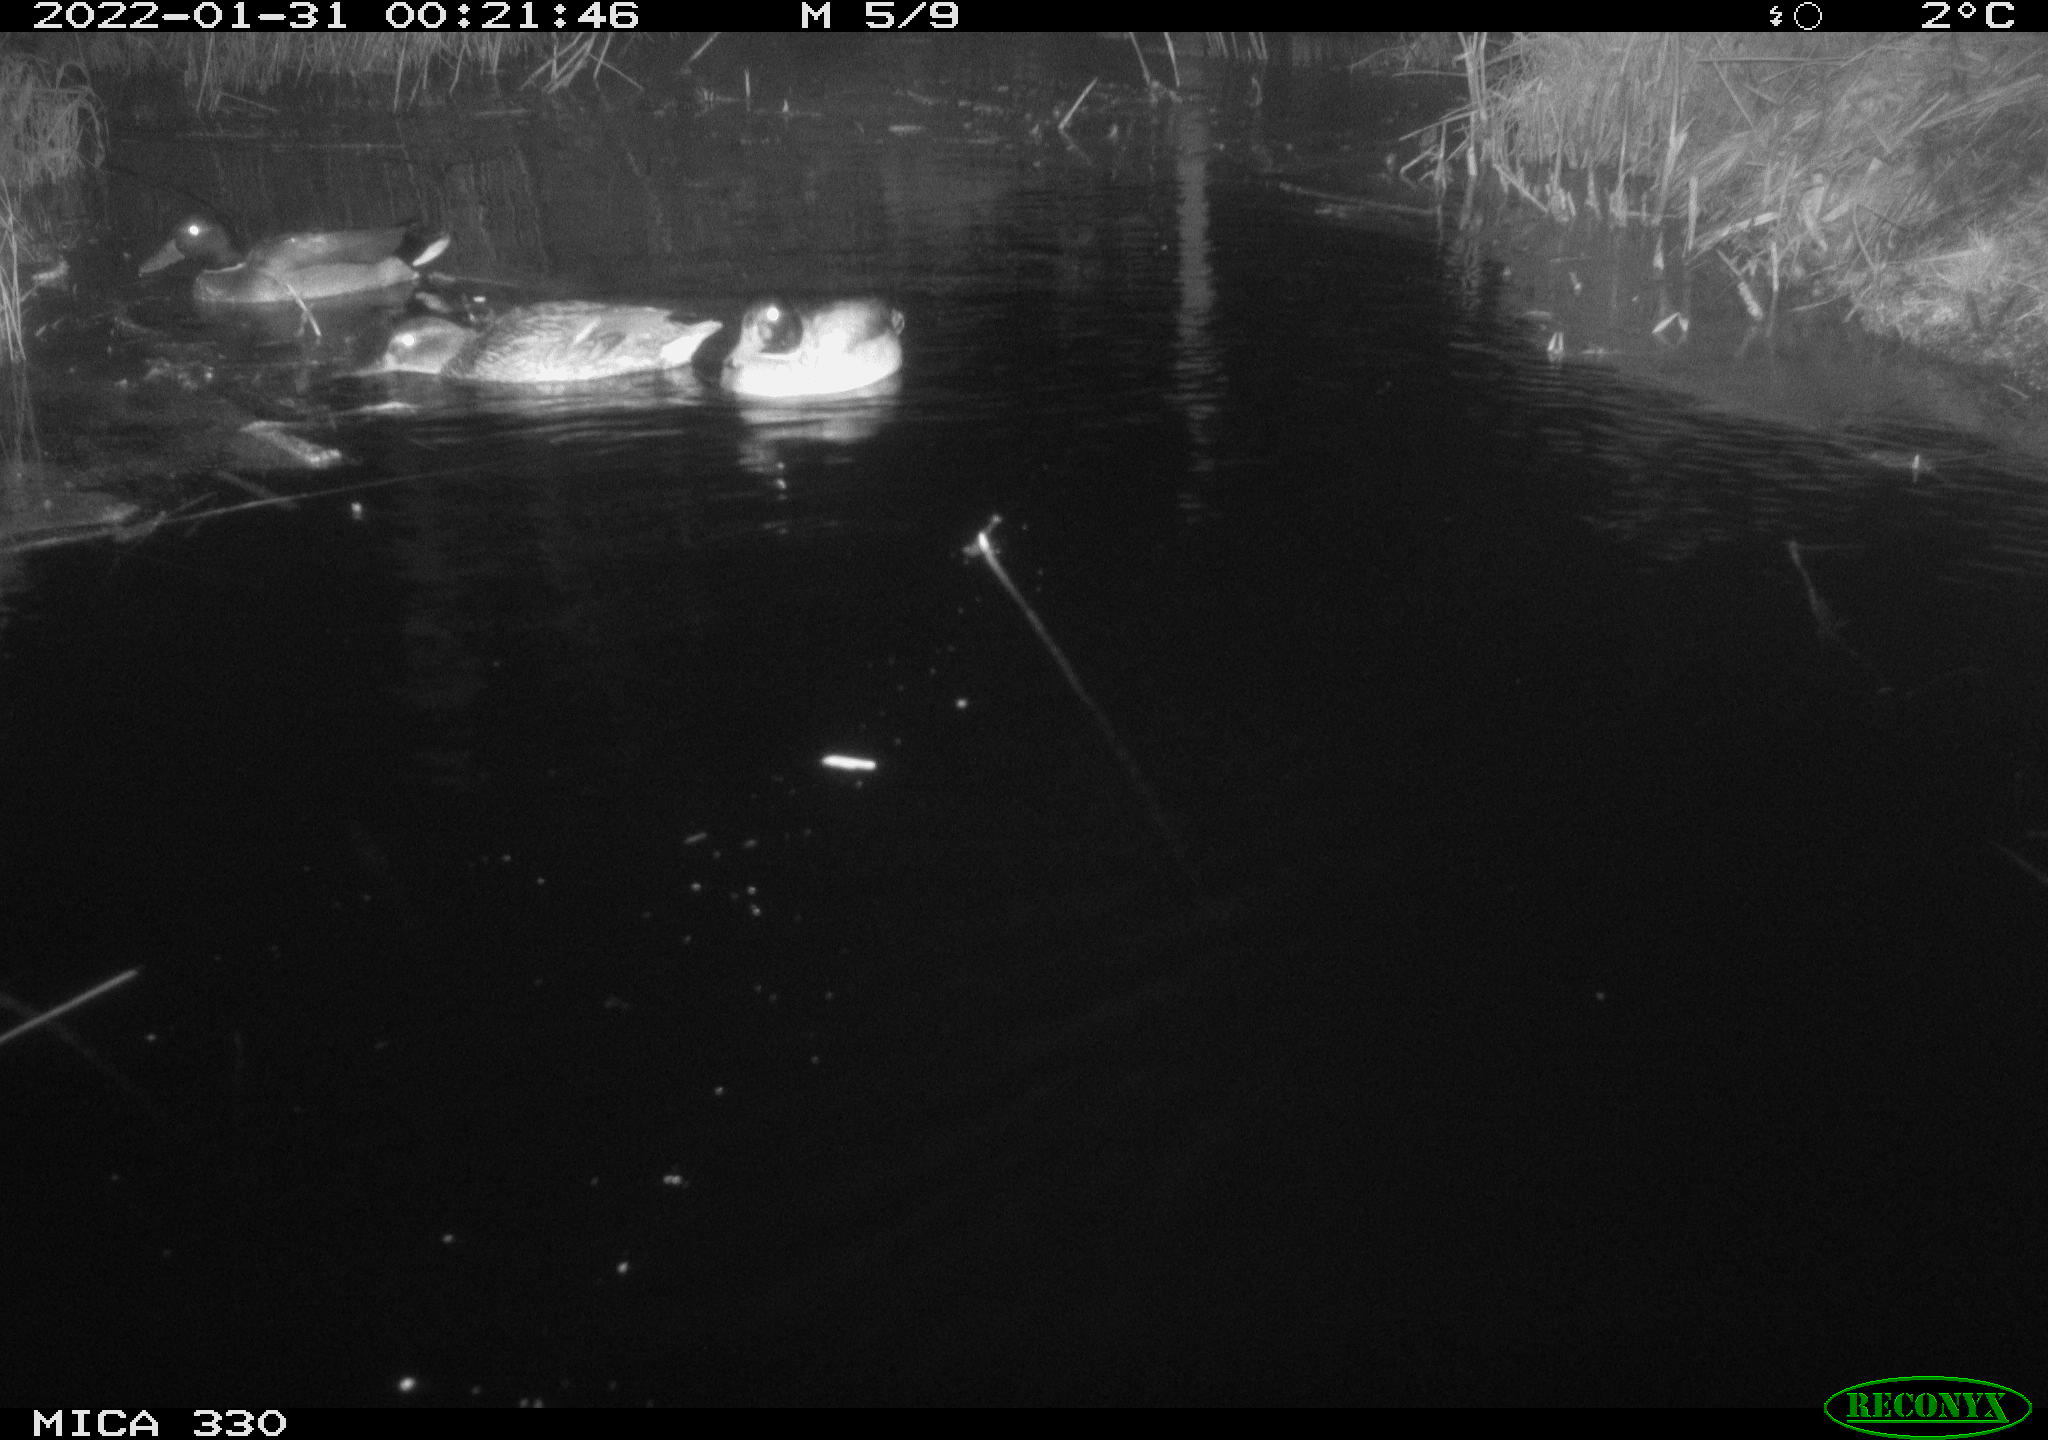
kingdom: Animalia
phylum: Chordata
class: Aves
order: Anseriformes
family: Anatidae
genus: Anas
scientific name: Anas platyrhynchos
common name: Mallard
